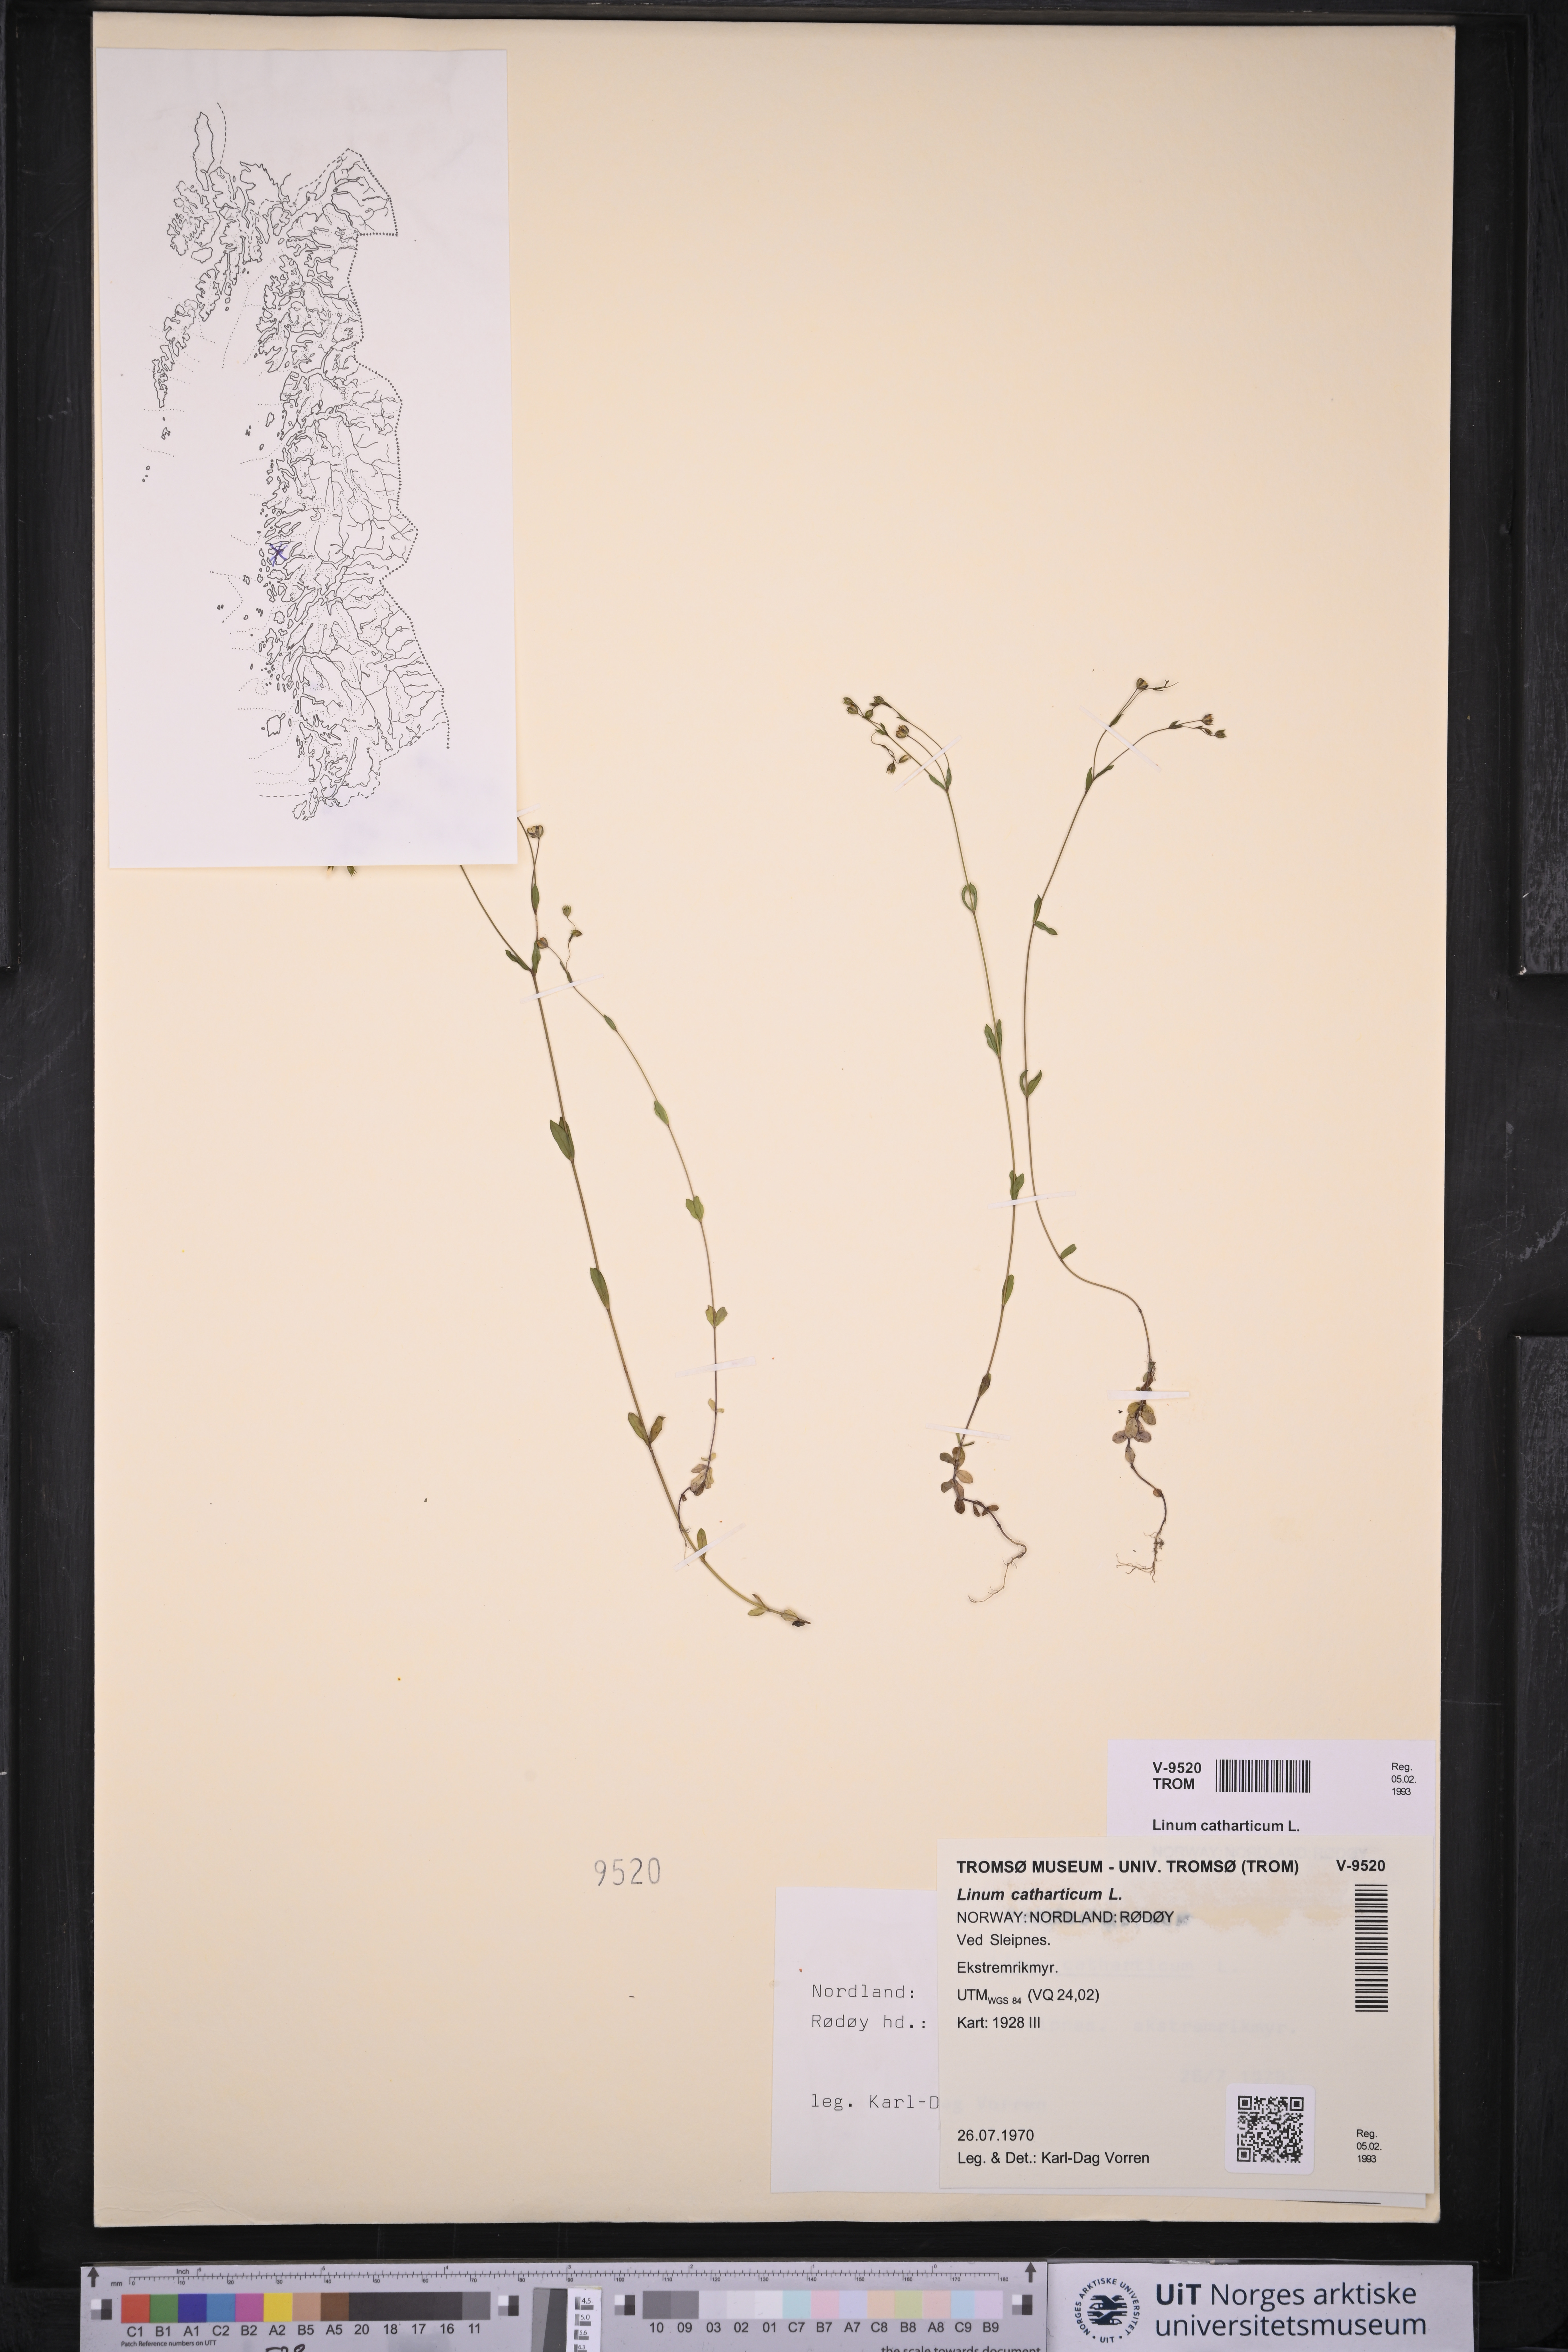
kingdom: Plantae
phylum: Tracheophyta
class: Magnoliopsida
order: Malpighiales
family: Linaceae
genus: Linum
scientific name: Linum catharticum
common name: Fairy flax
